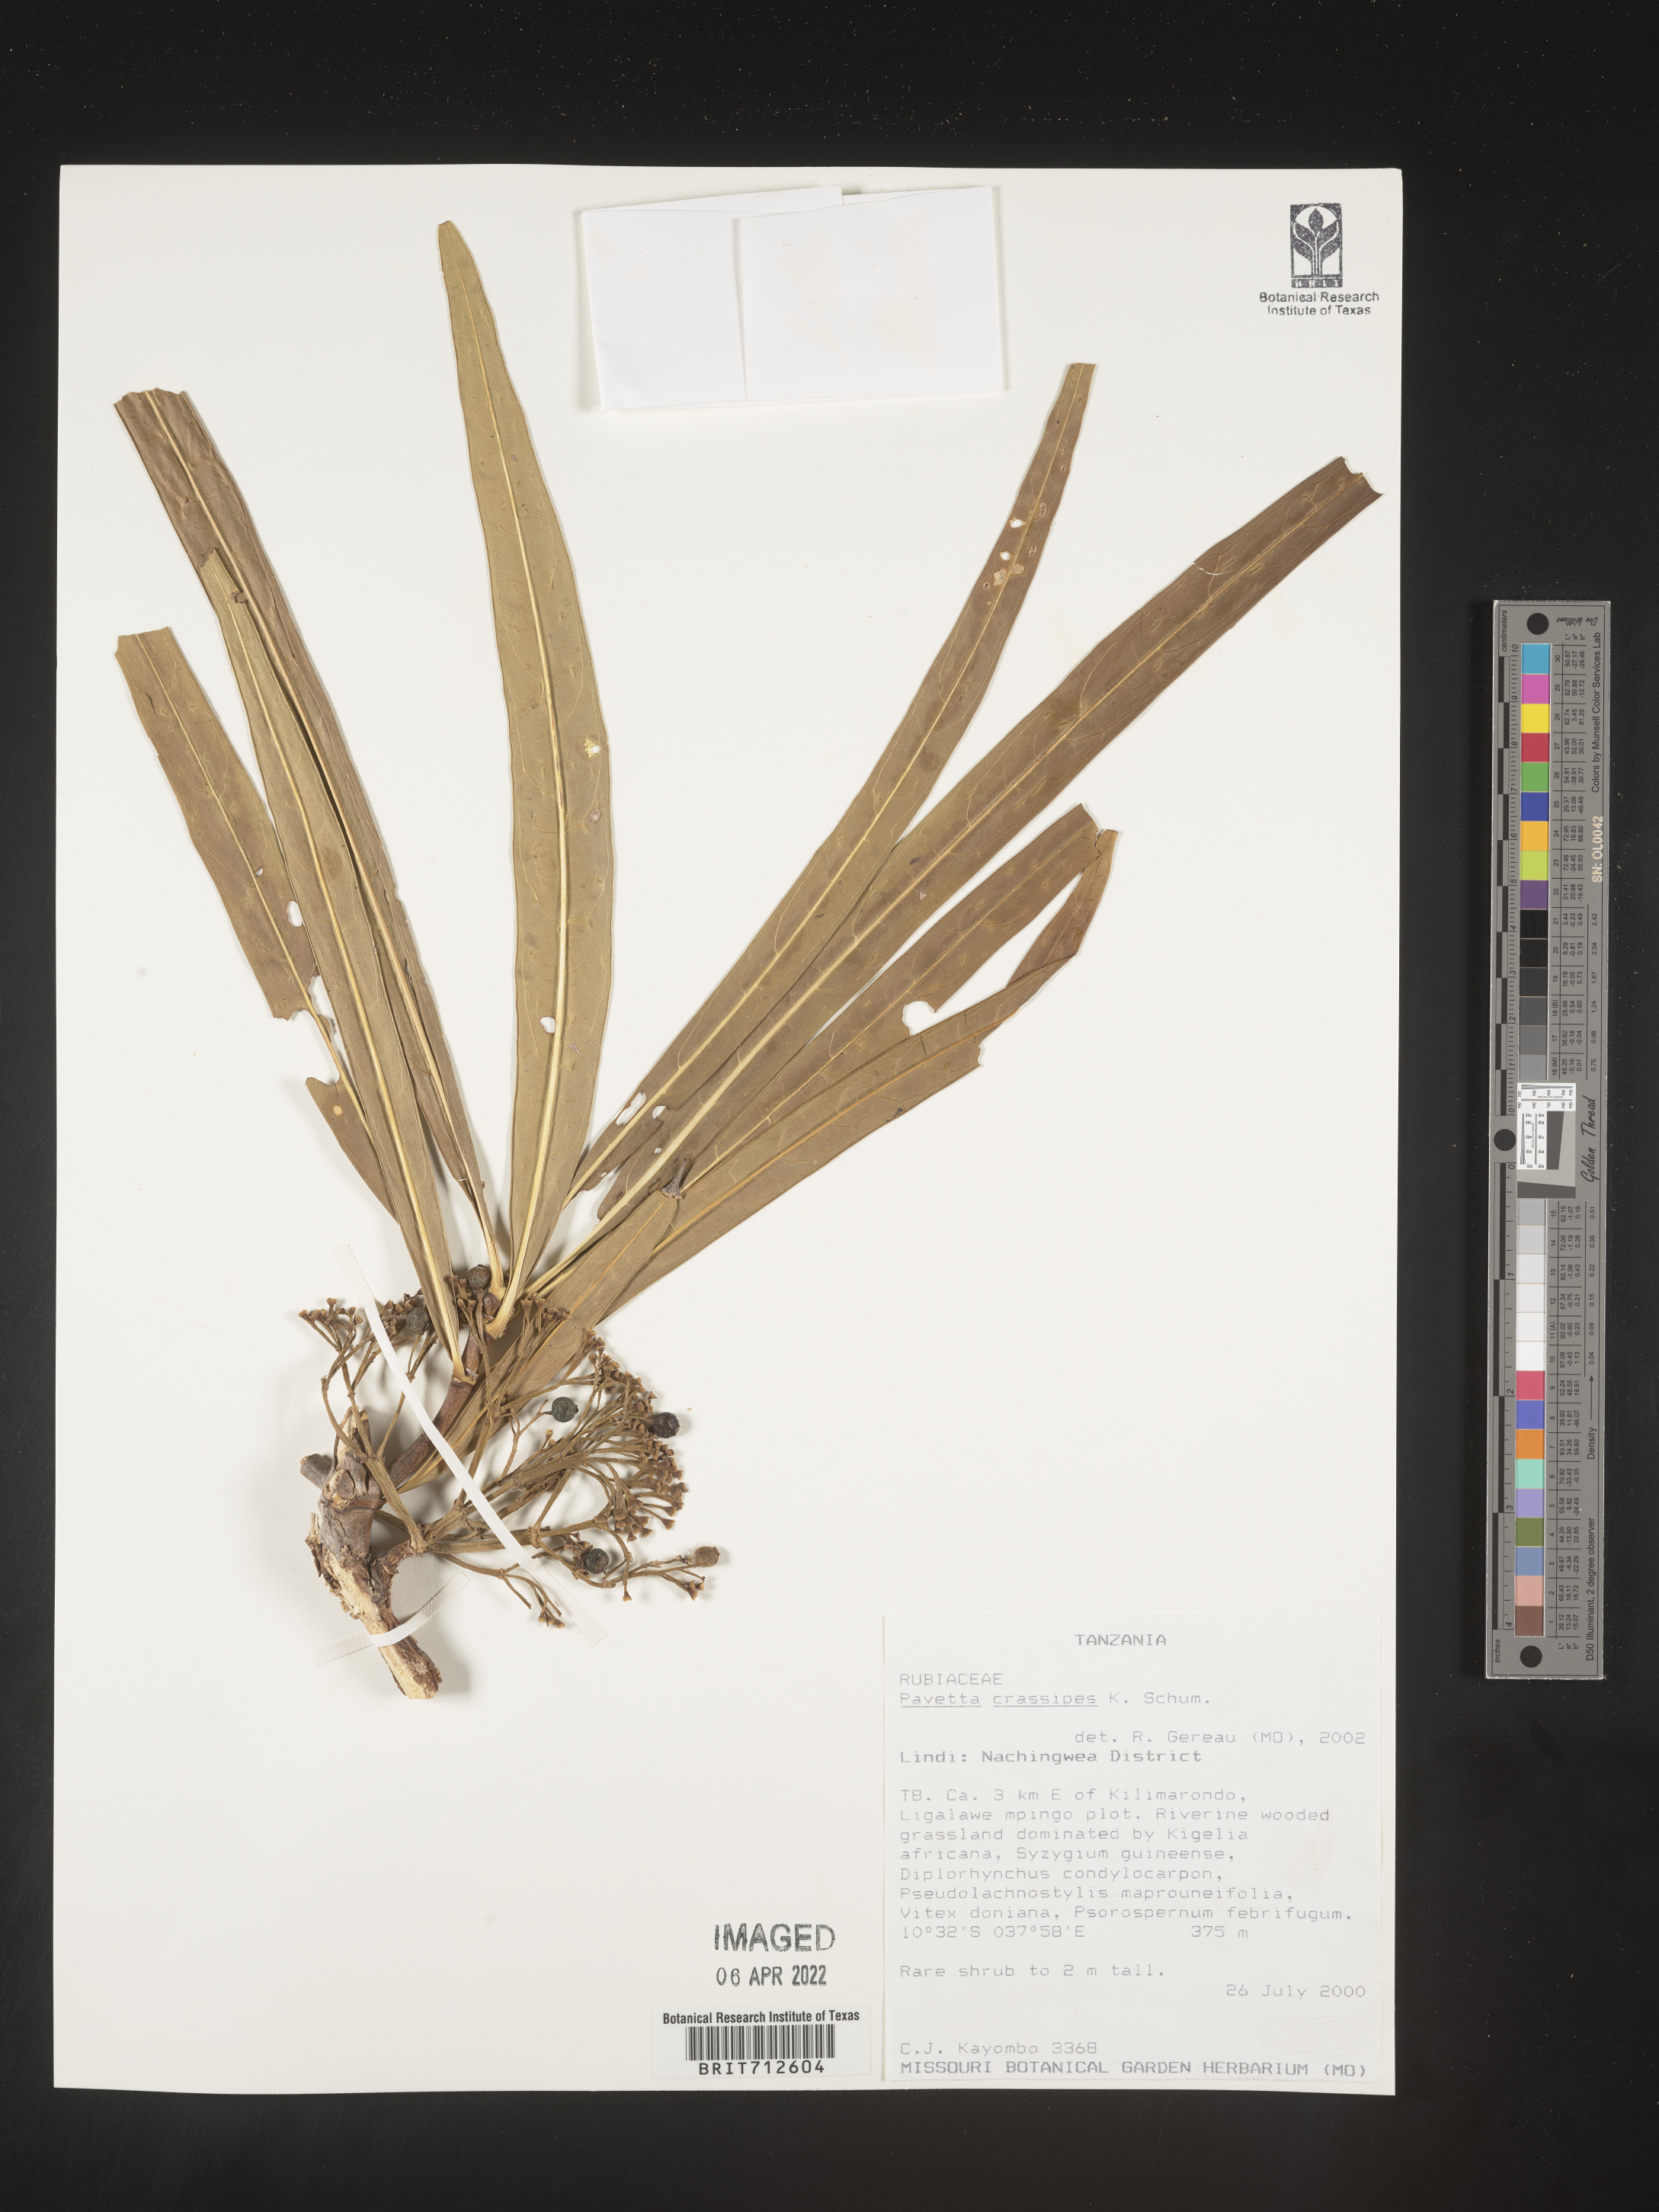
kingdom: Plantae
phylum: Tracheophyta
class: Magnoliopsida
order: Gentianales
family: Rubiaceae
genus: Pavetta
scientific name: Pavetta
